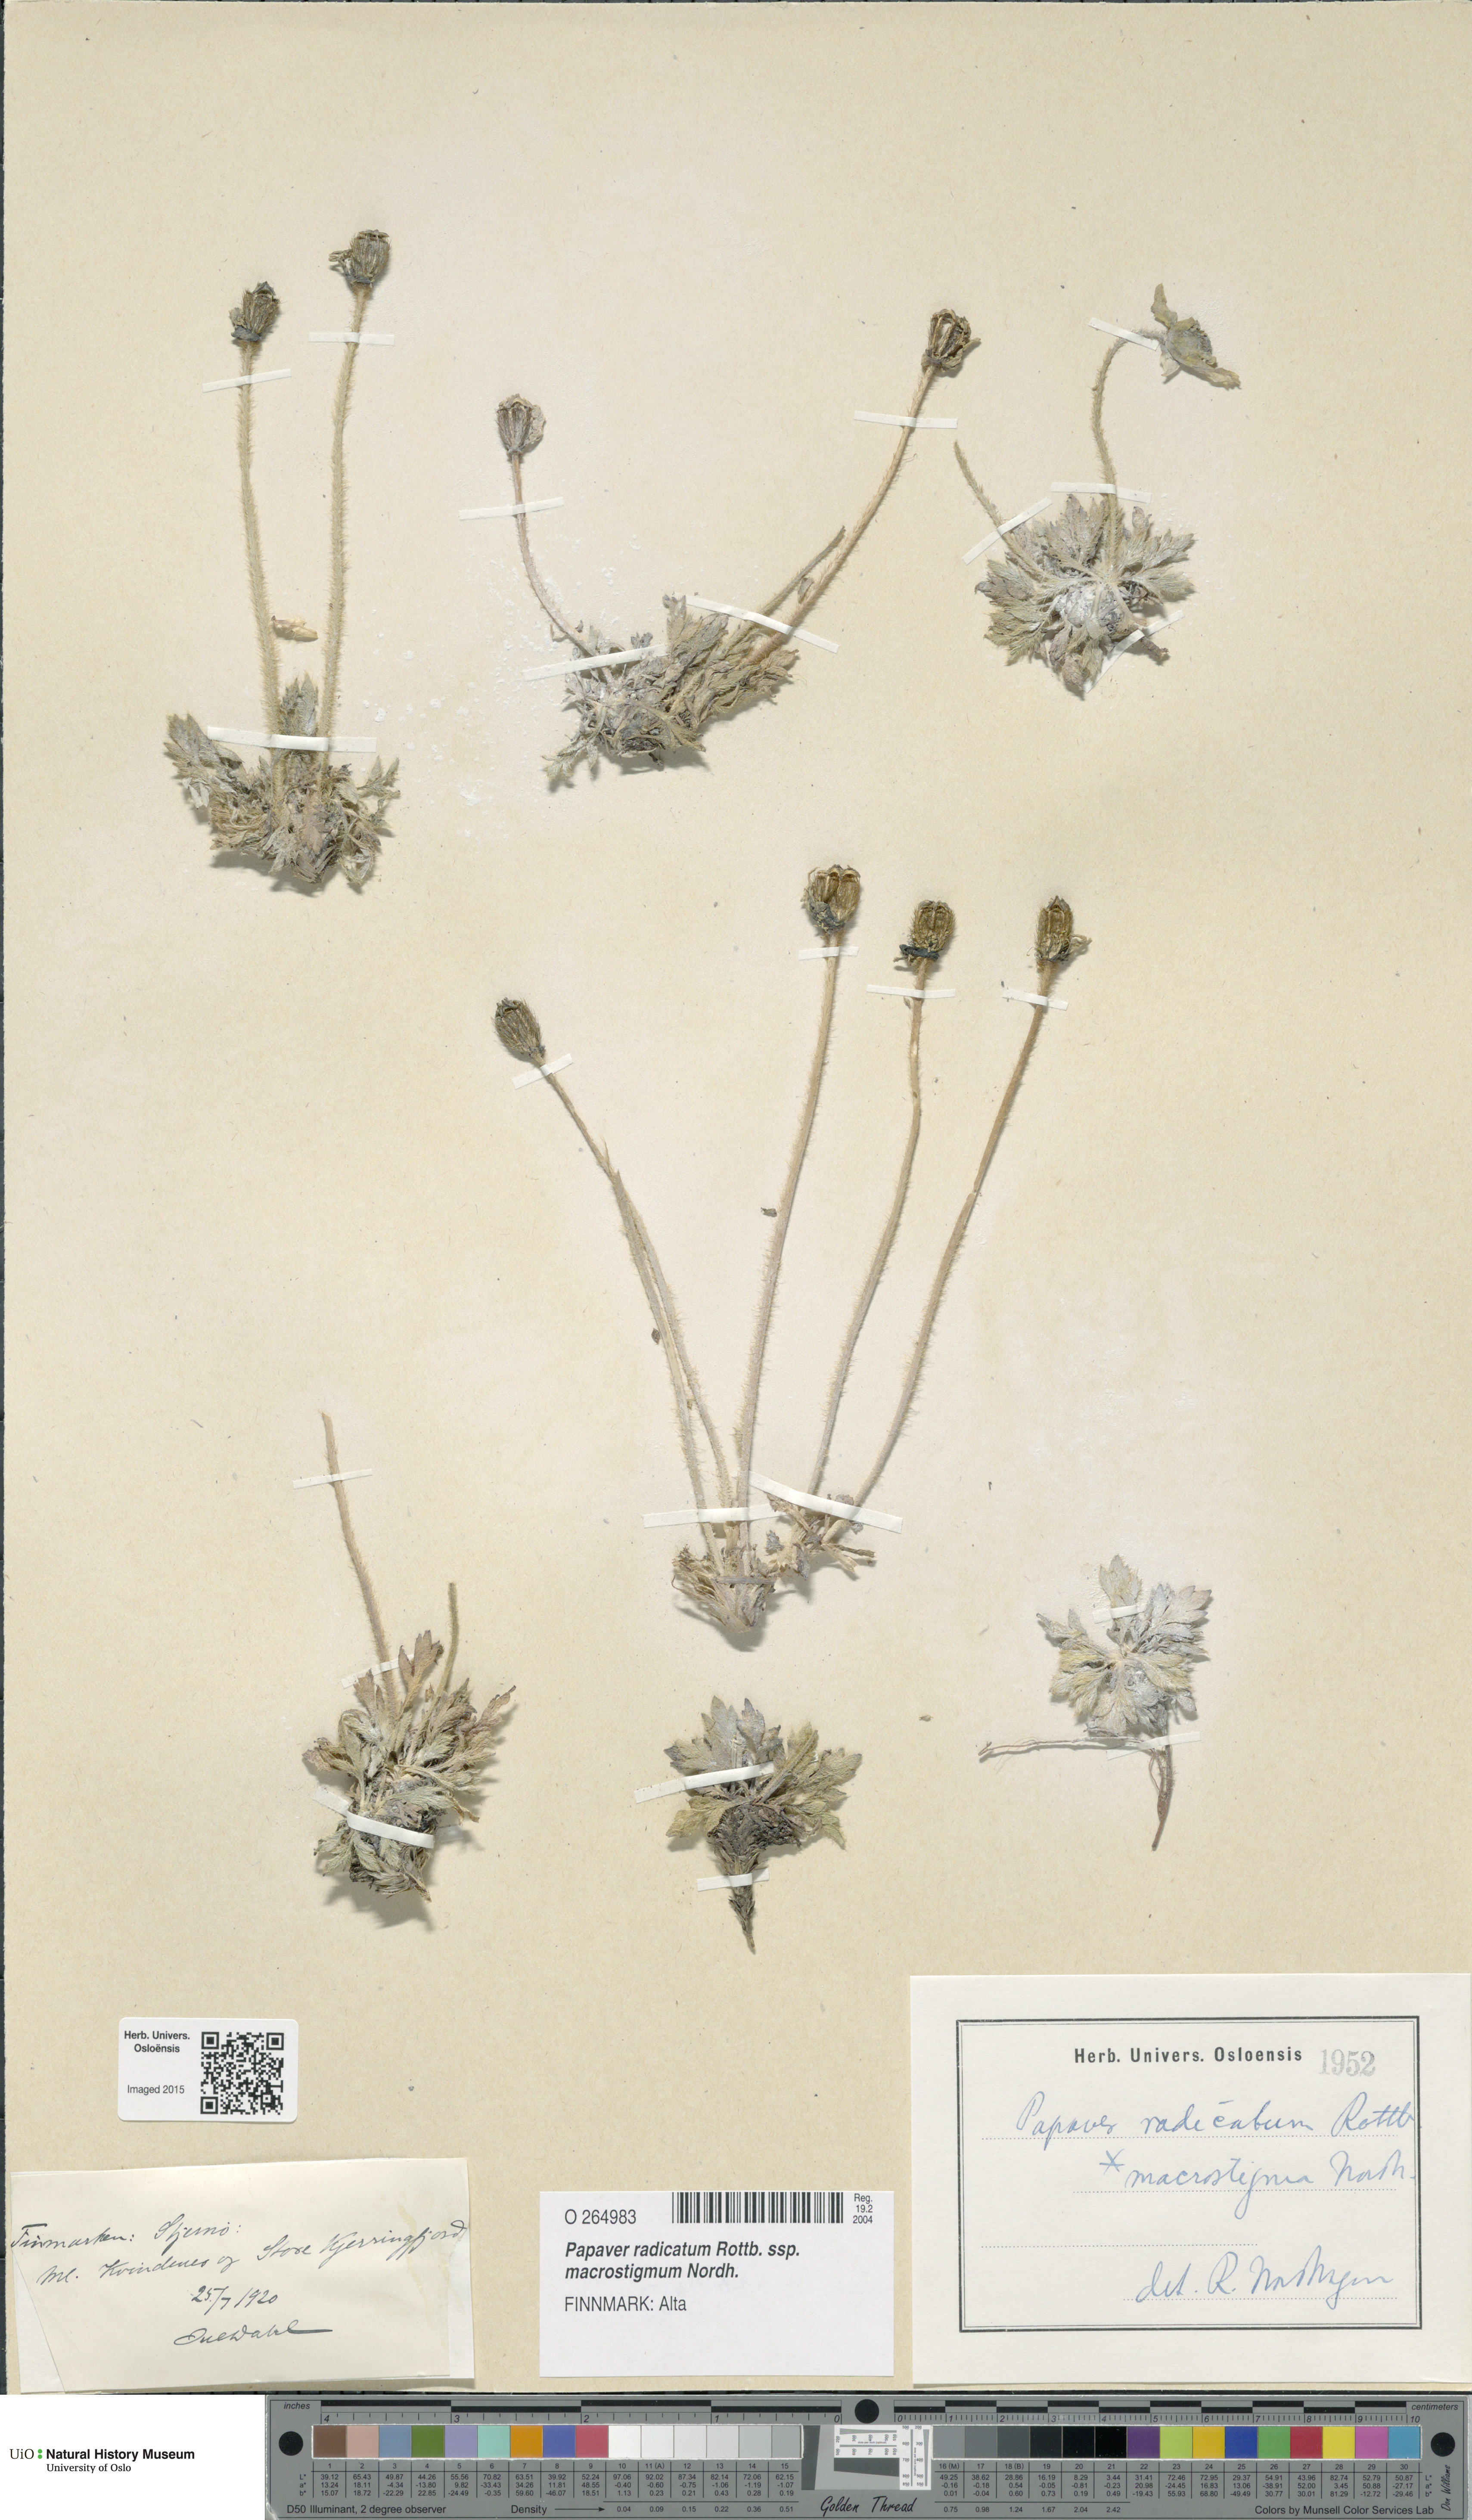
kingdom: Plantae
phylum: Tracheophyta
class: Magnoliopsida
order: Ranunculales
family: Papaveraceae
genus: Papaver
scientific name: Papaver radicatum
